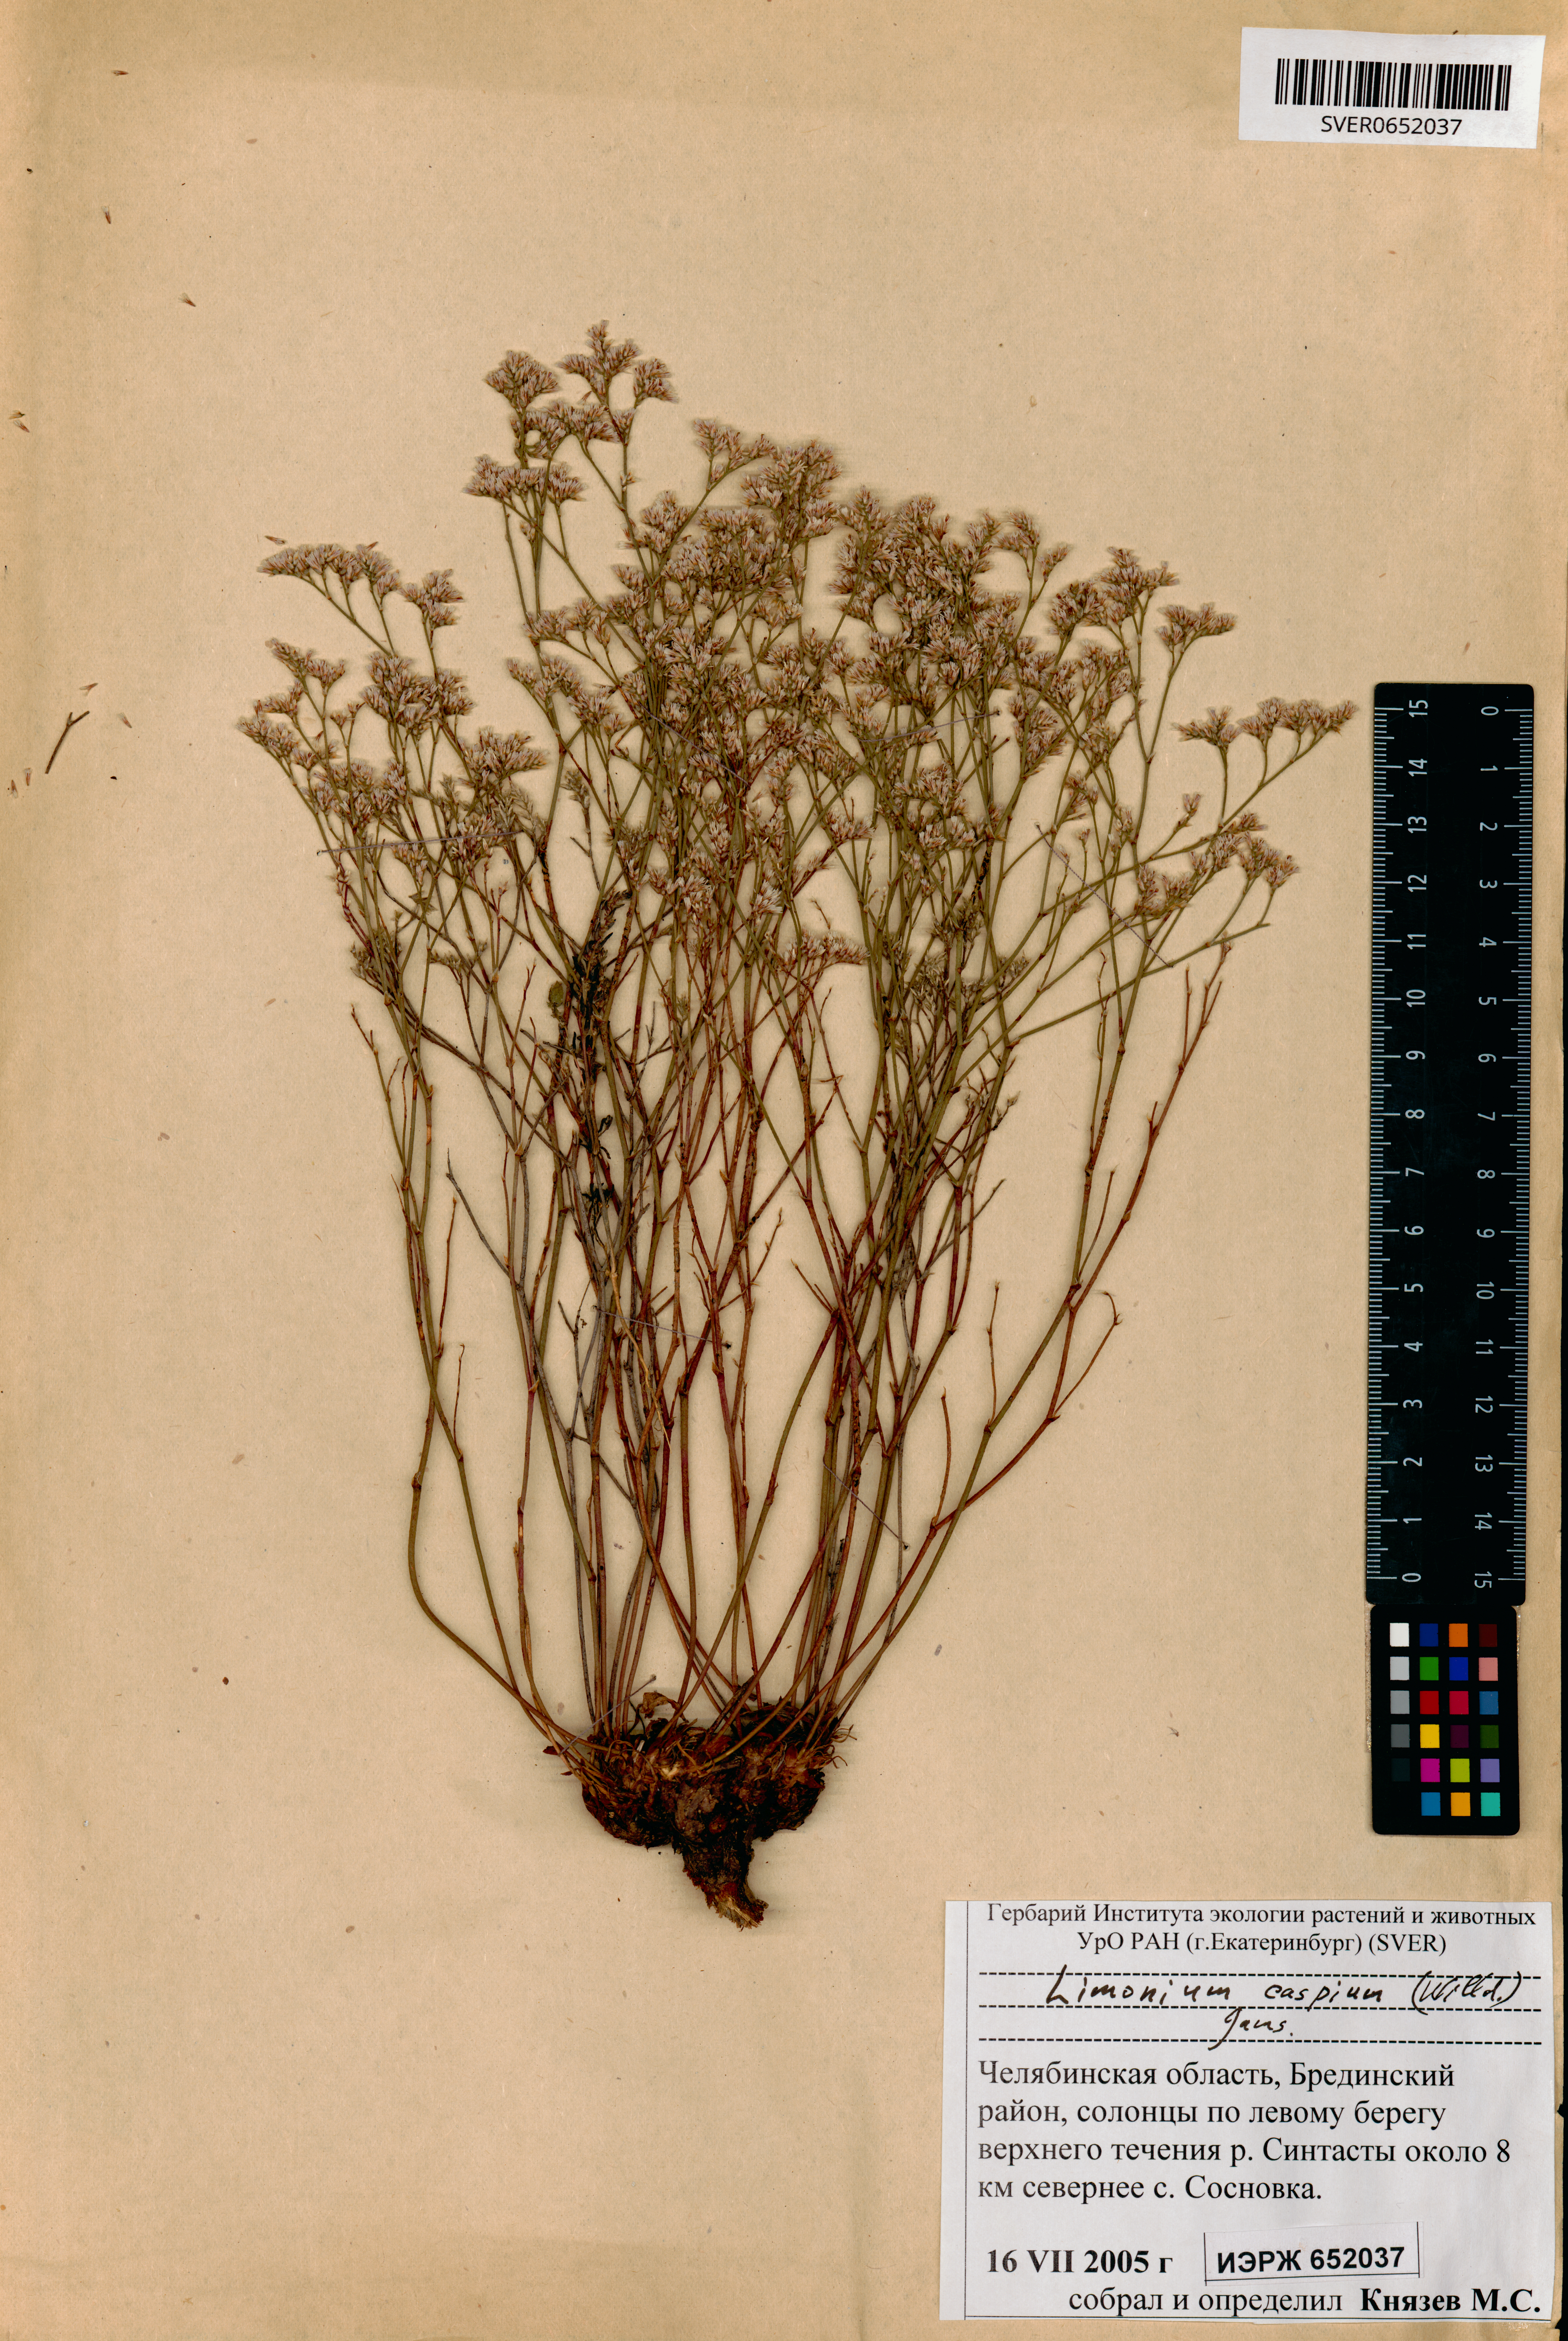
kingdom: Plantae
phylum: Tracheophyta
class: Magnoliopsida
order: Caryophyllales
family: Plumbaginaceae
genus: Limonium
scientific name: Limonium bellidifolium
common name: Matted sea-lavender
